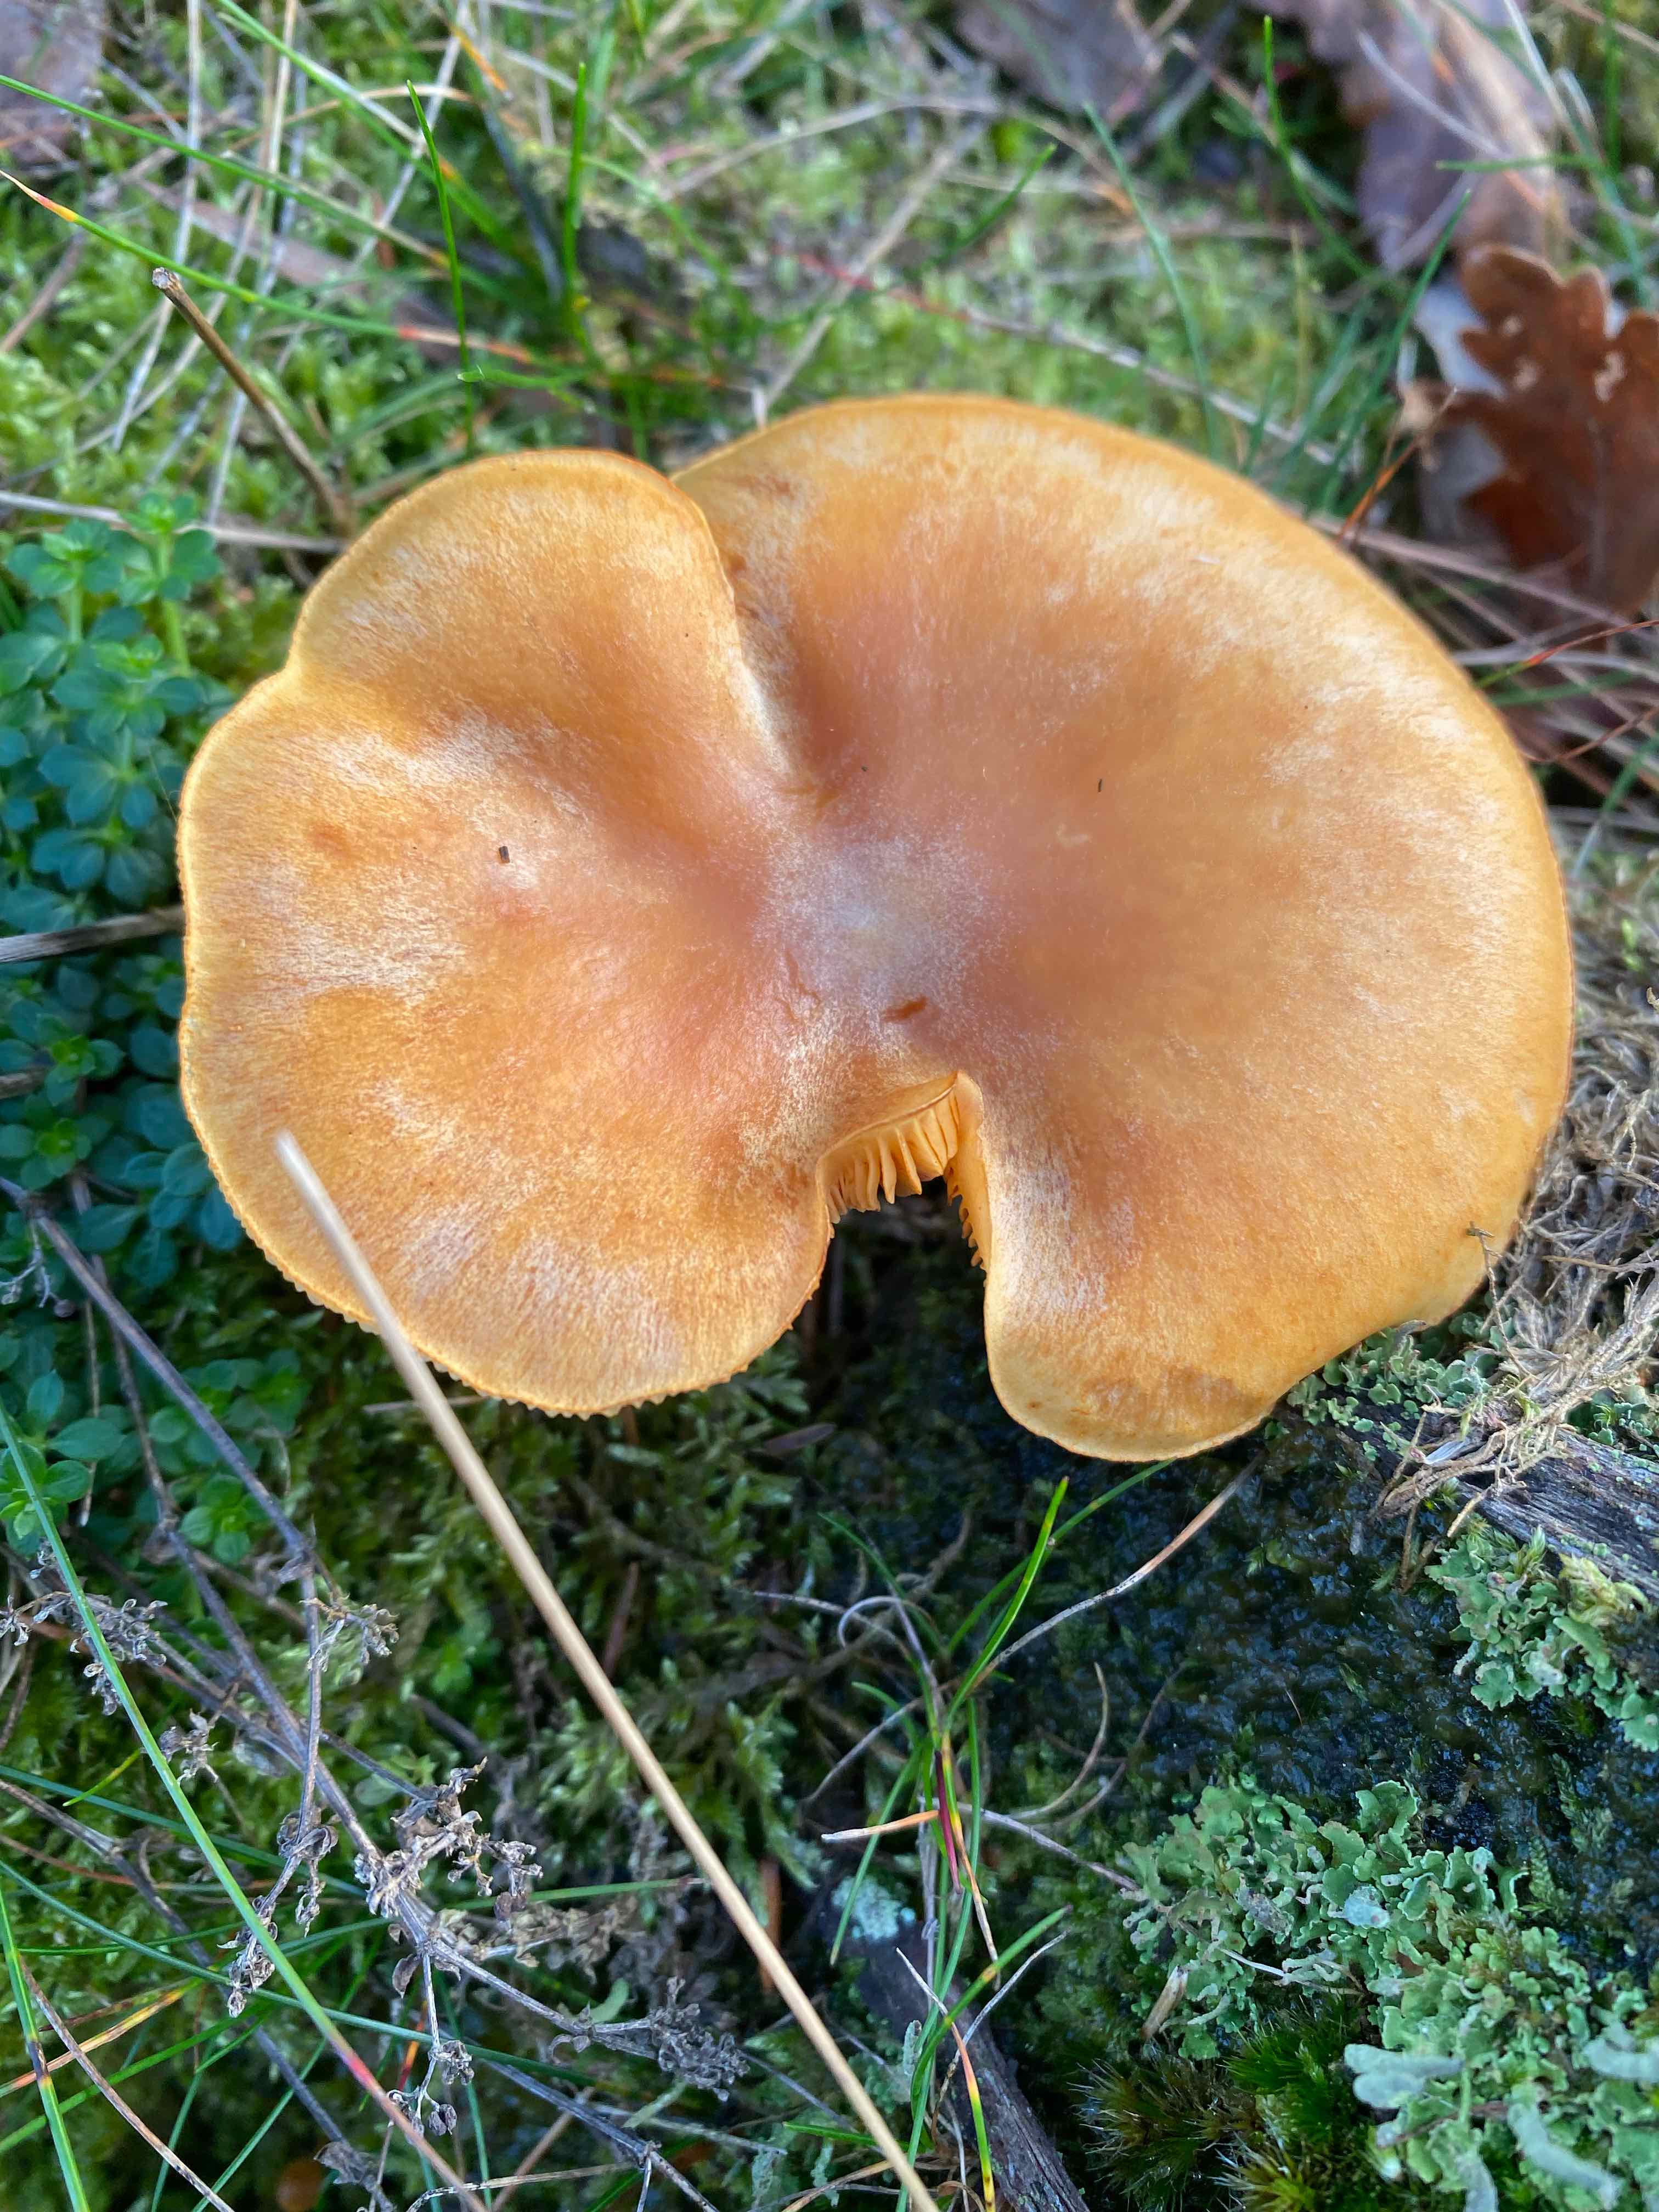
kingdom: Fungi
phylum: Basidiomycota
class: Agaricomycetes
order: Agaricales
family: Hymenogastraceae
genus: Gymnopilus
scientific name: Gymnopilus penetrans
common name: plettet flammehat
